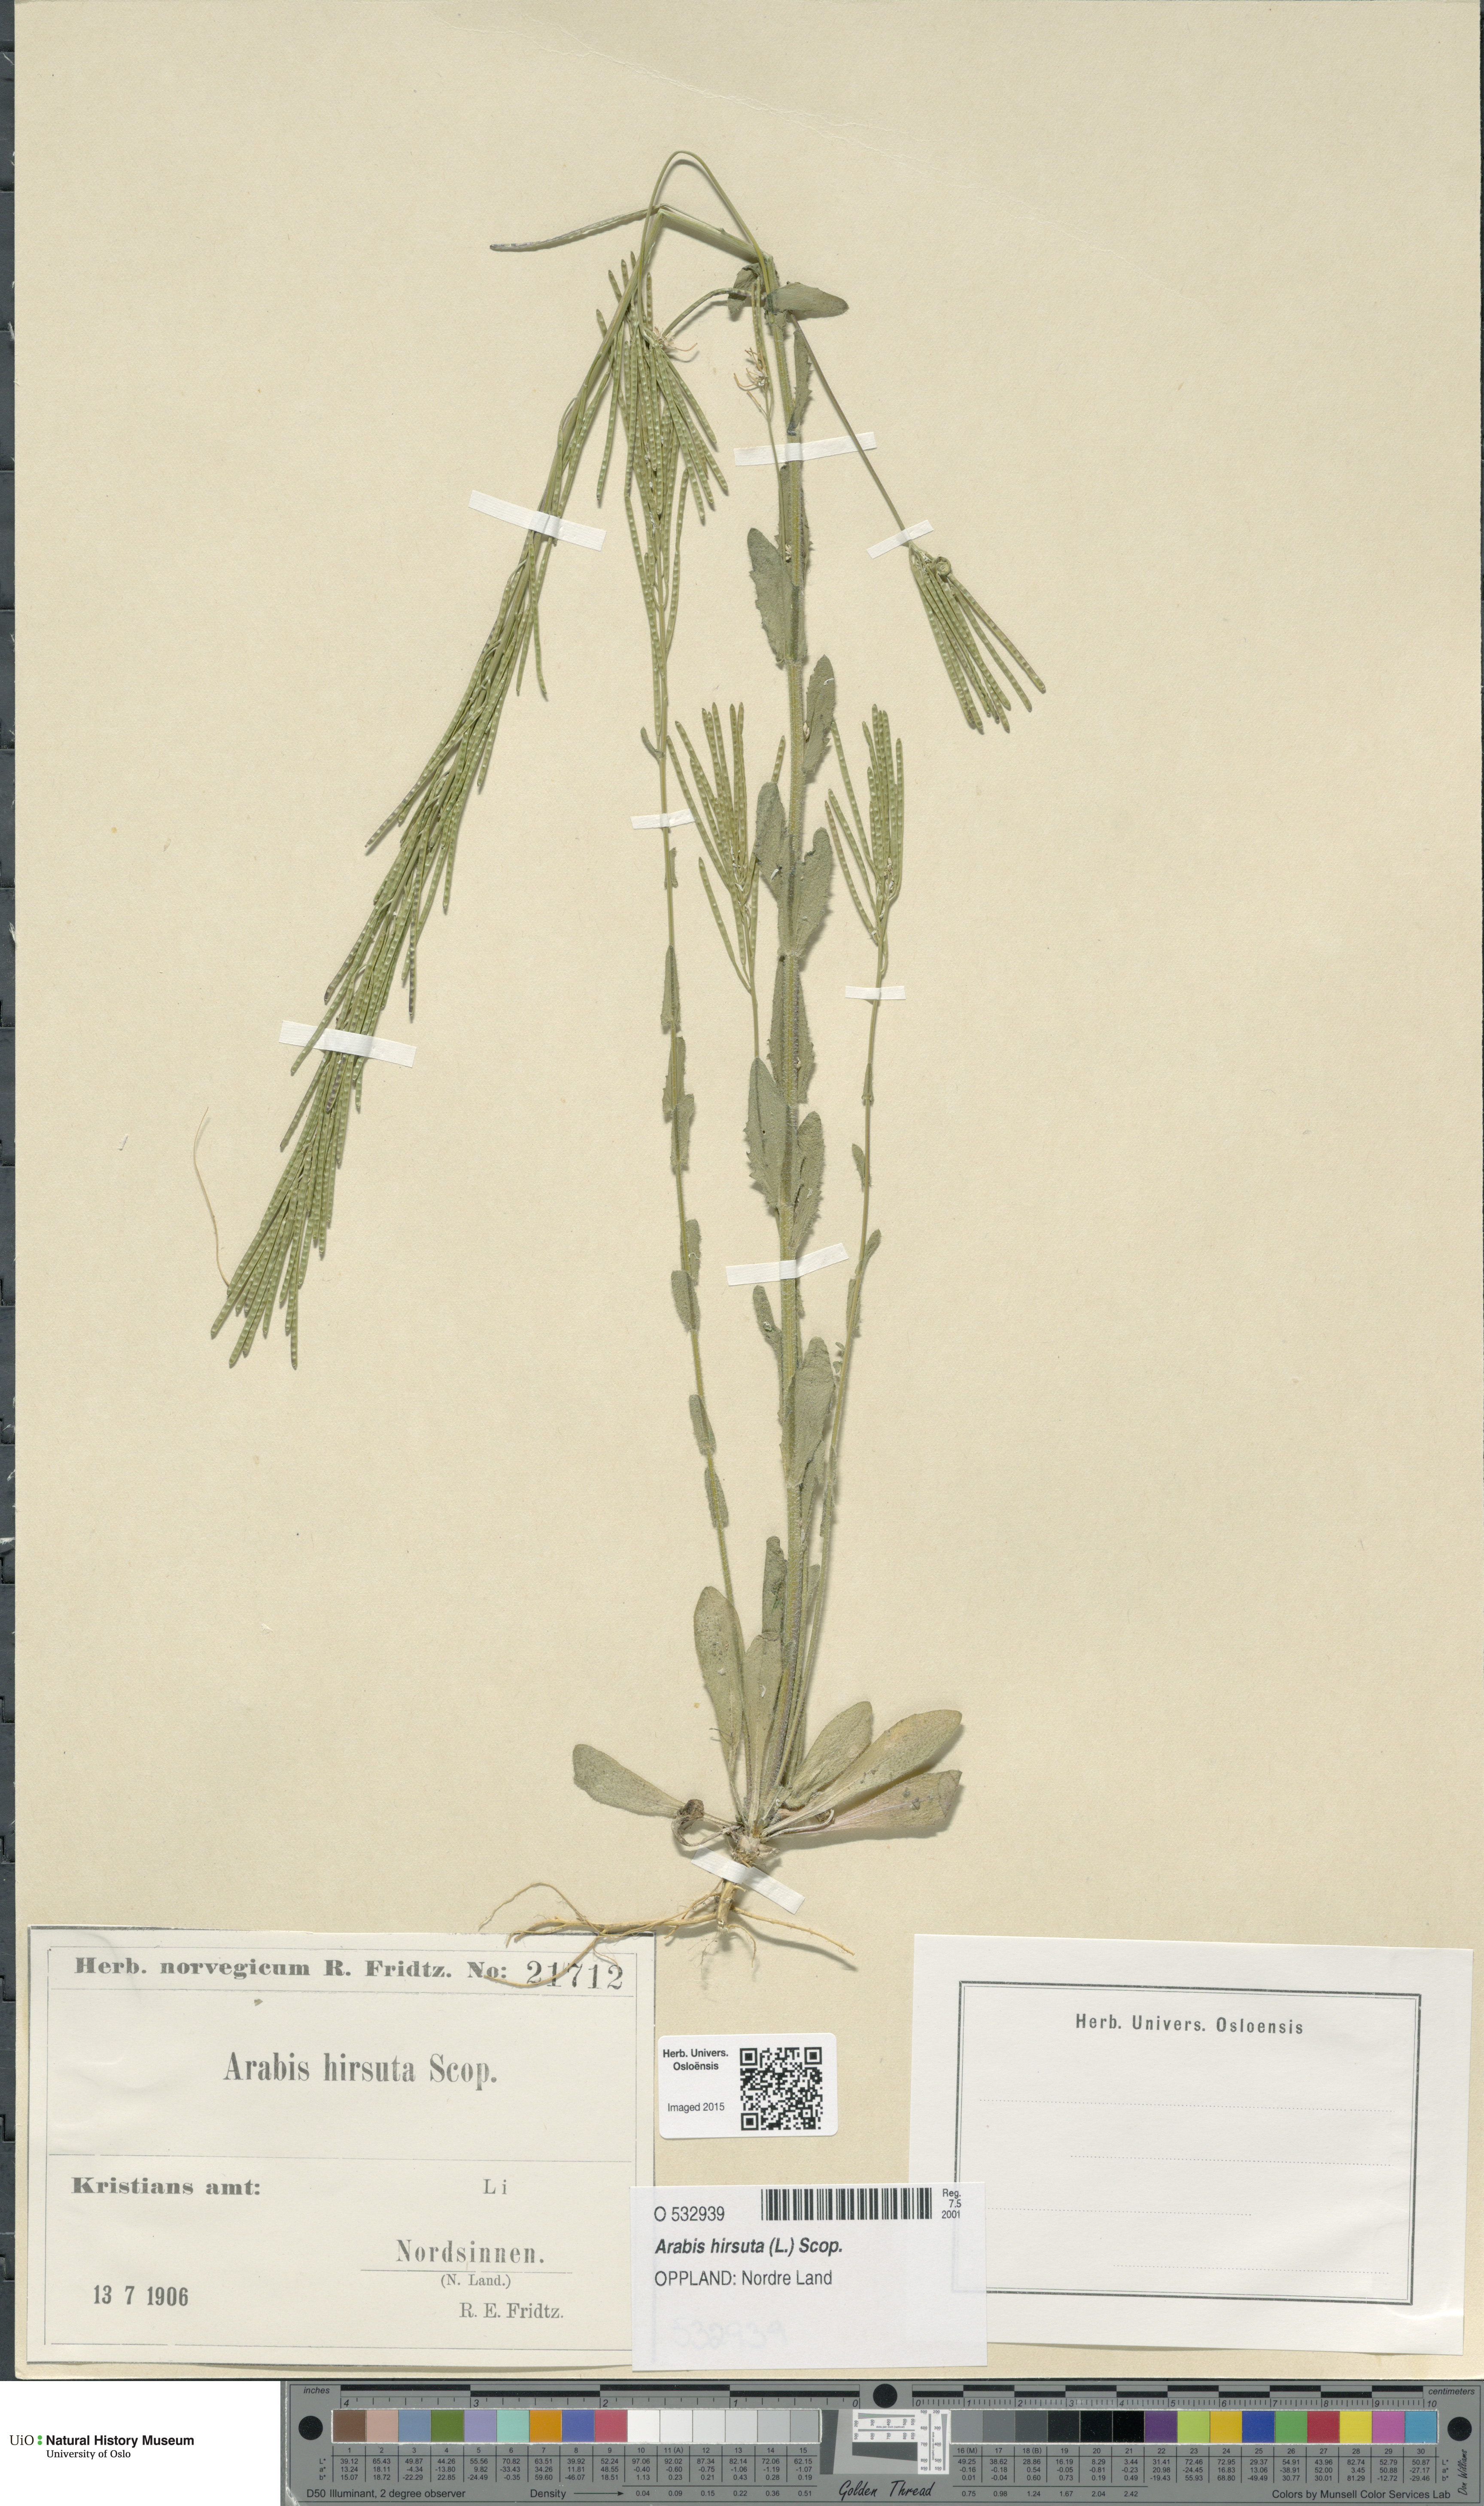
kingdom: Plantae
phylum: Tracheophyta
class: Magnoliopsida
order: Brassicales
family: Brassicaceae
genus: Arabis
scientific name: Arabis hirsuta
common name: Hairy rock-cress
